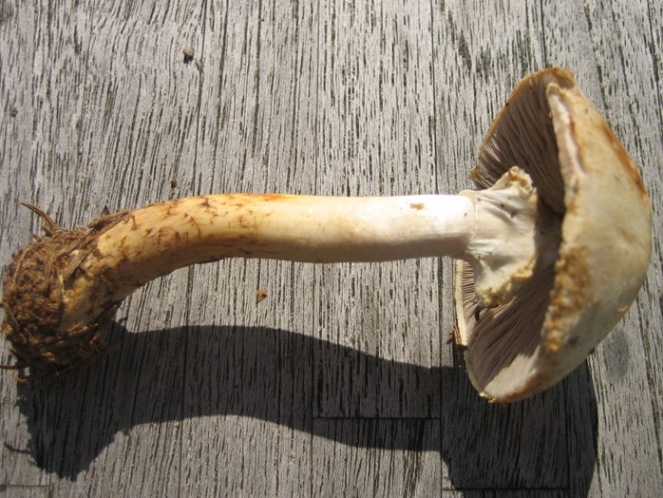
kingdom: Fungi
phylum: Basidiomycota
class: Agaricomycetes
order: Agaricales
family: Agaricaceae
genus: Agaricus
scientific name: Agaricus sylvicola
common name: gulhvid champignon
